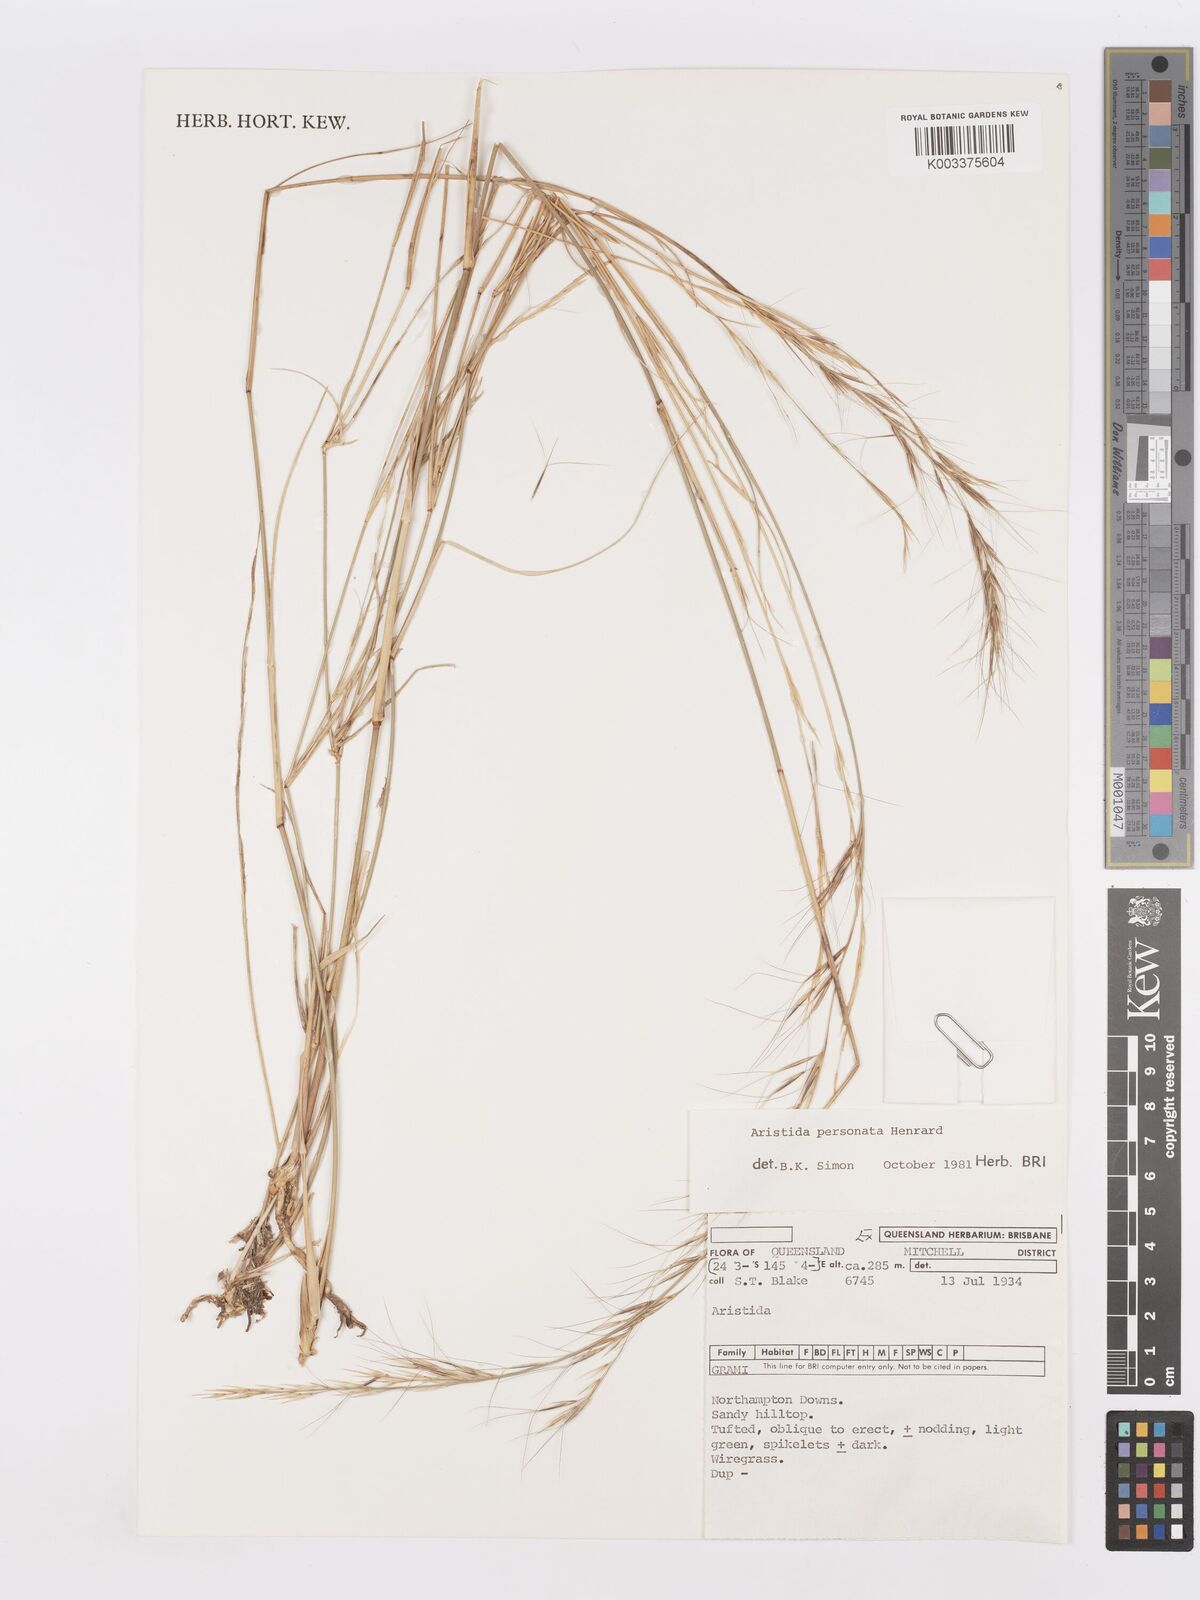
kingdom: Plantae
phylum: Tracheophyta
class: Liliopsida
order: Poales
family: Poaceae
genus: Aristida
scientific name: Aristida personata
